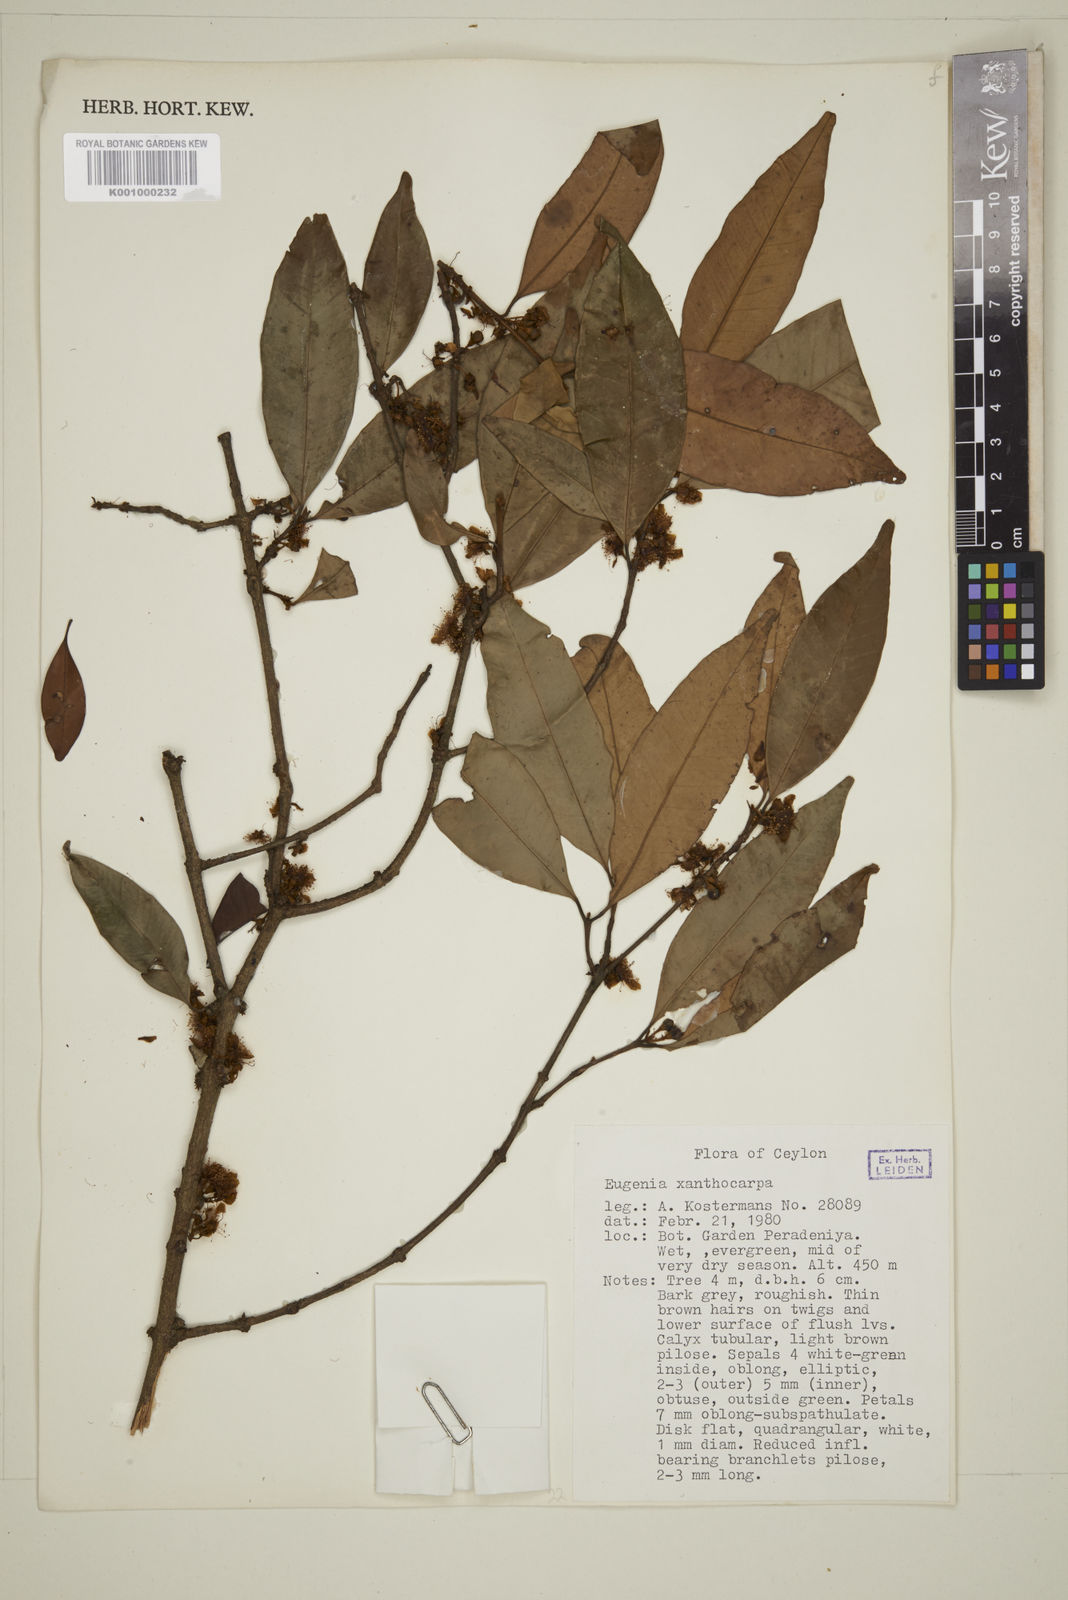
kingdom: Plantae
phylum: Tracheophyta
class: Magnoliopsida
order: Myrtales
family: Myrtaceae
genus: Campomanesia
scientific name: Campomanesia xanthocarpa
